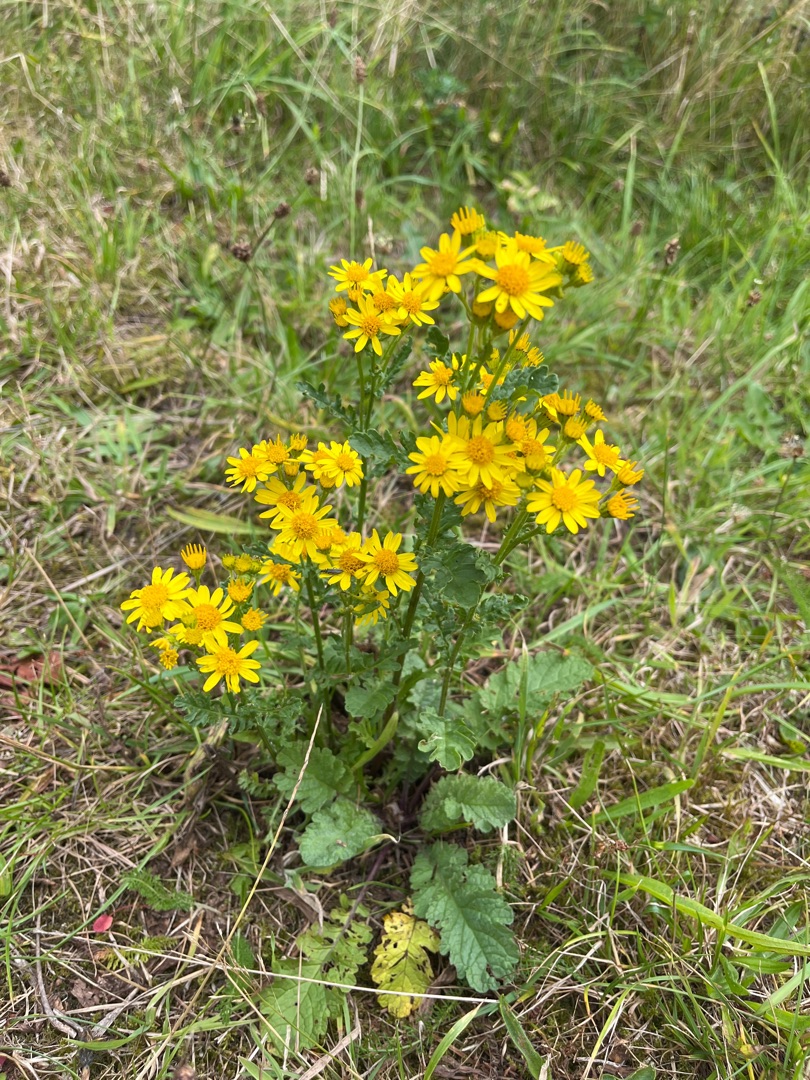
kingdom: Plantae
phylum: Tracheophyta
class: Magnoliopsida
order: Asterales
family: Asteraceae
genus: Jacobaea
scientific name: Jacobaea vulgaris
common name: Eng-brandbæger
